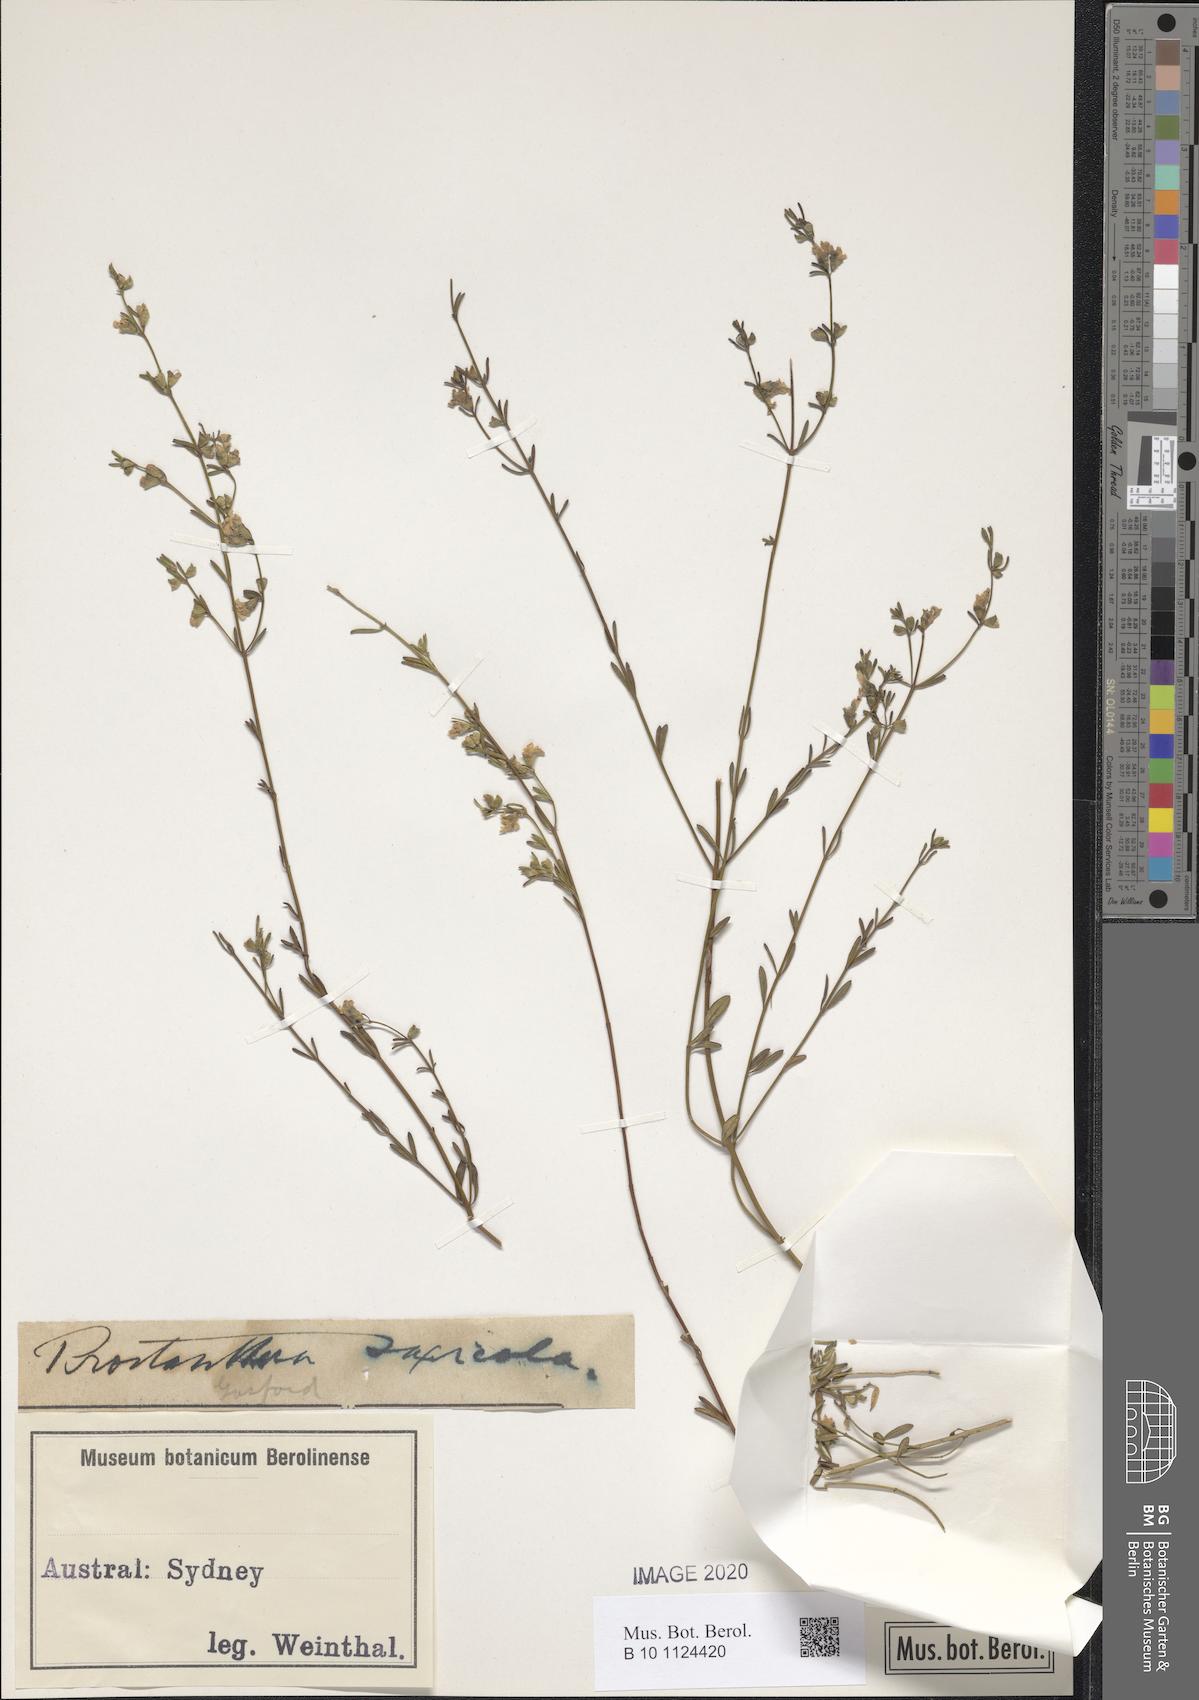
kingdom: Plantae
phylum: Tracheophyta
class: Magnoliopsida
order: Lamiales
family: Lamiaceae
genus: Prostanthera
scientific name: Prostanthera junonis
